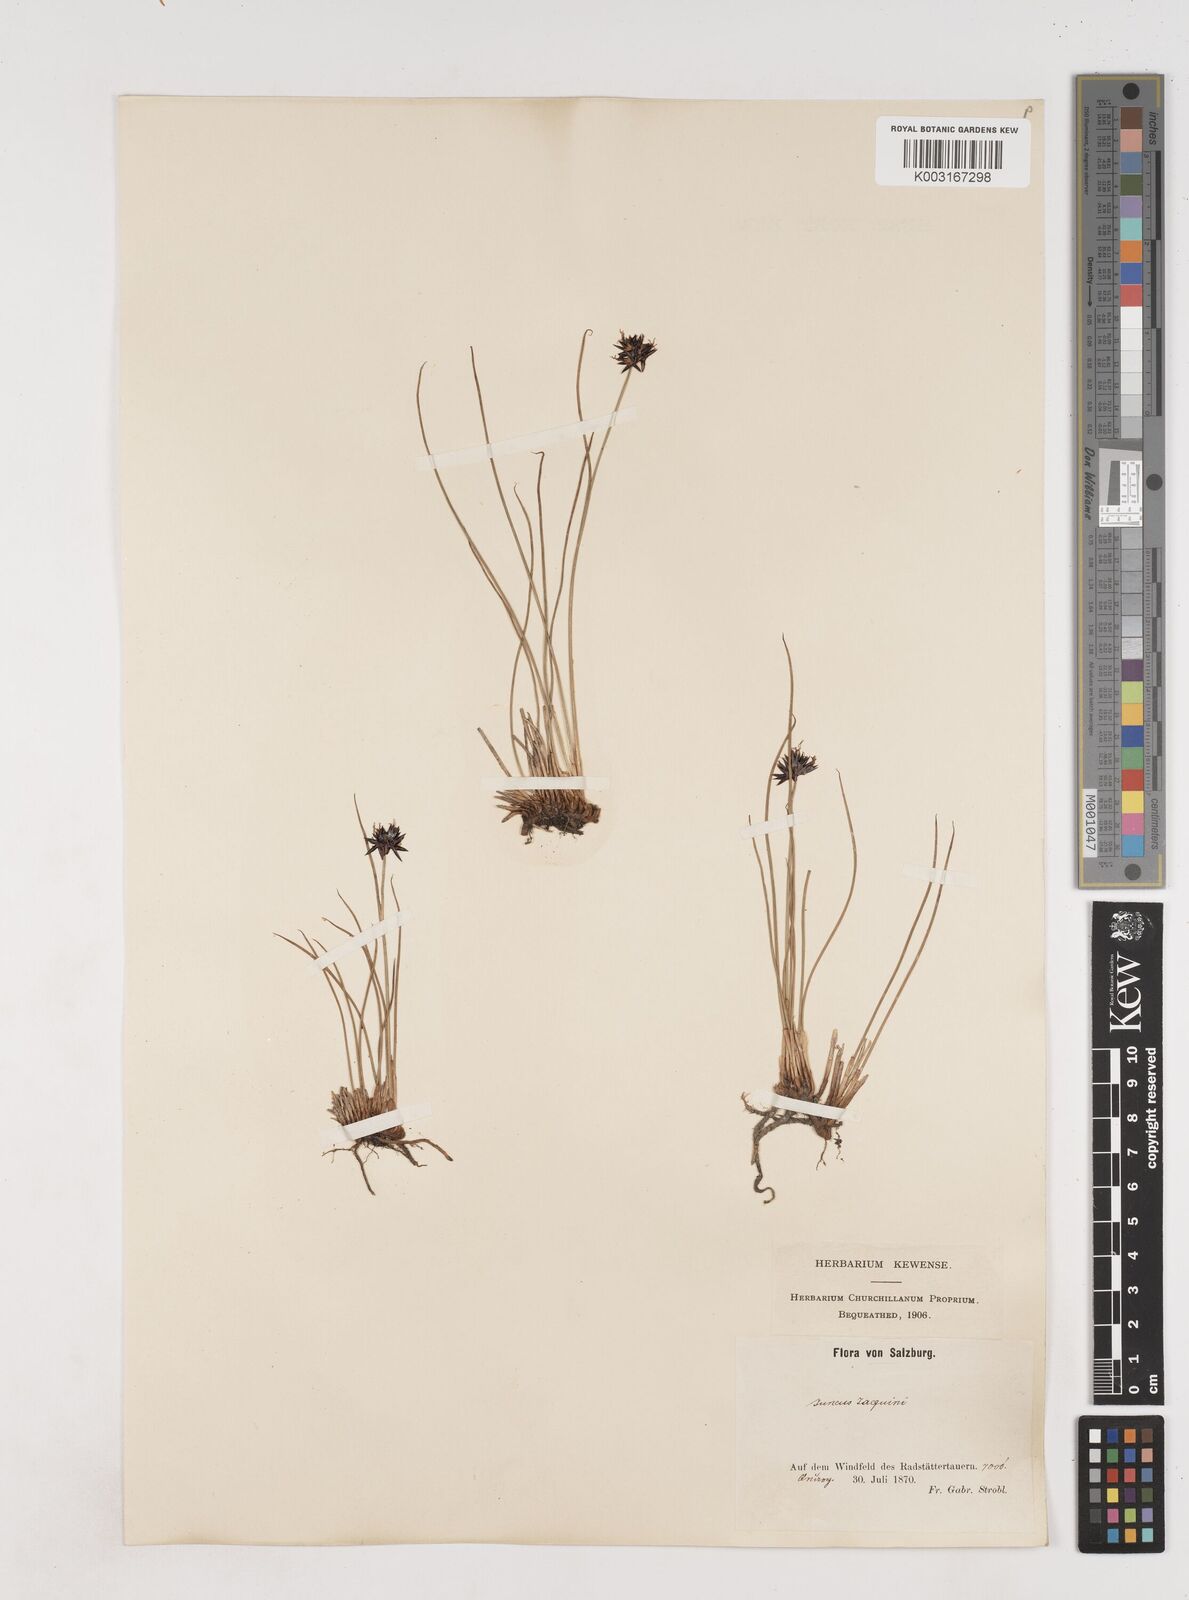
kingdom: Plantae
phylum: Tracheophyta
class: Liliopsida
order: Poales
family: Juncaceae
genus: Juncus
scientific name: Juncus jacquinii
